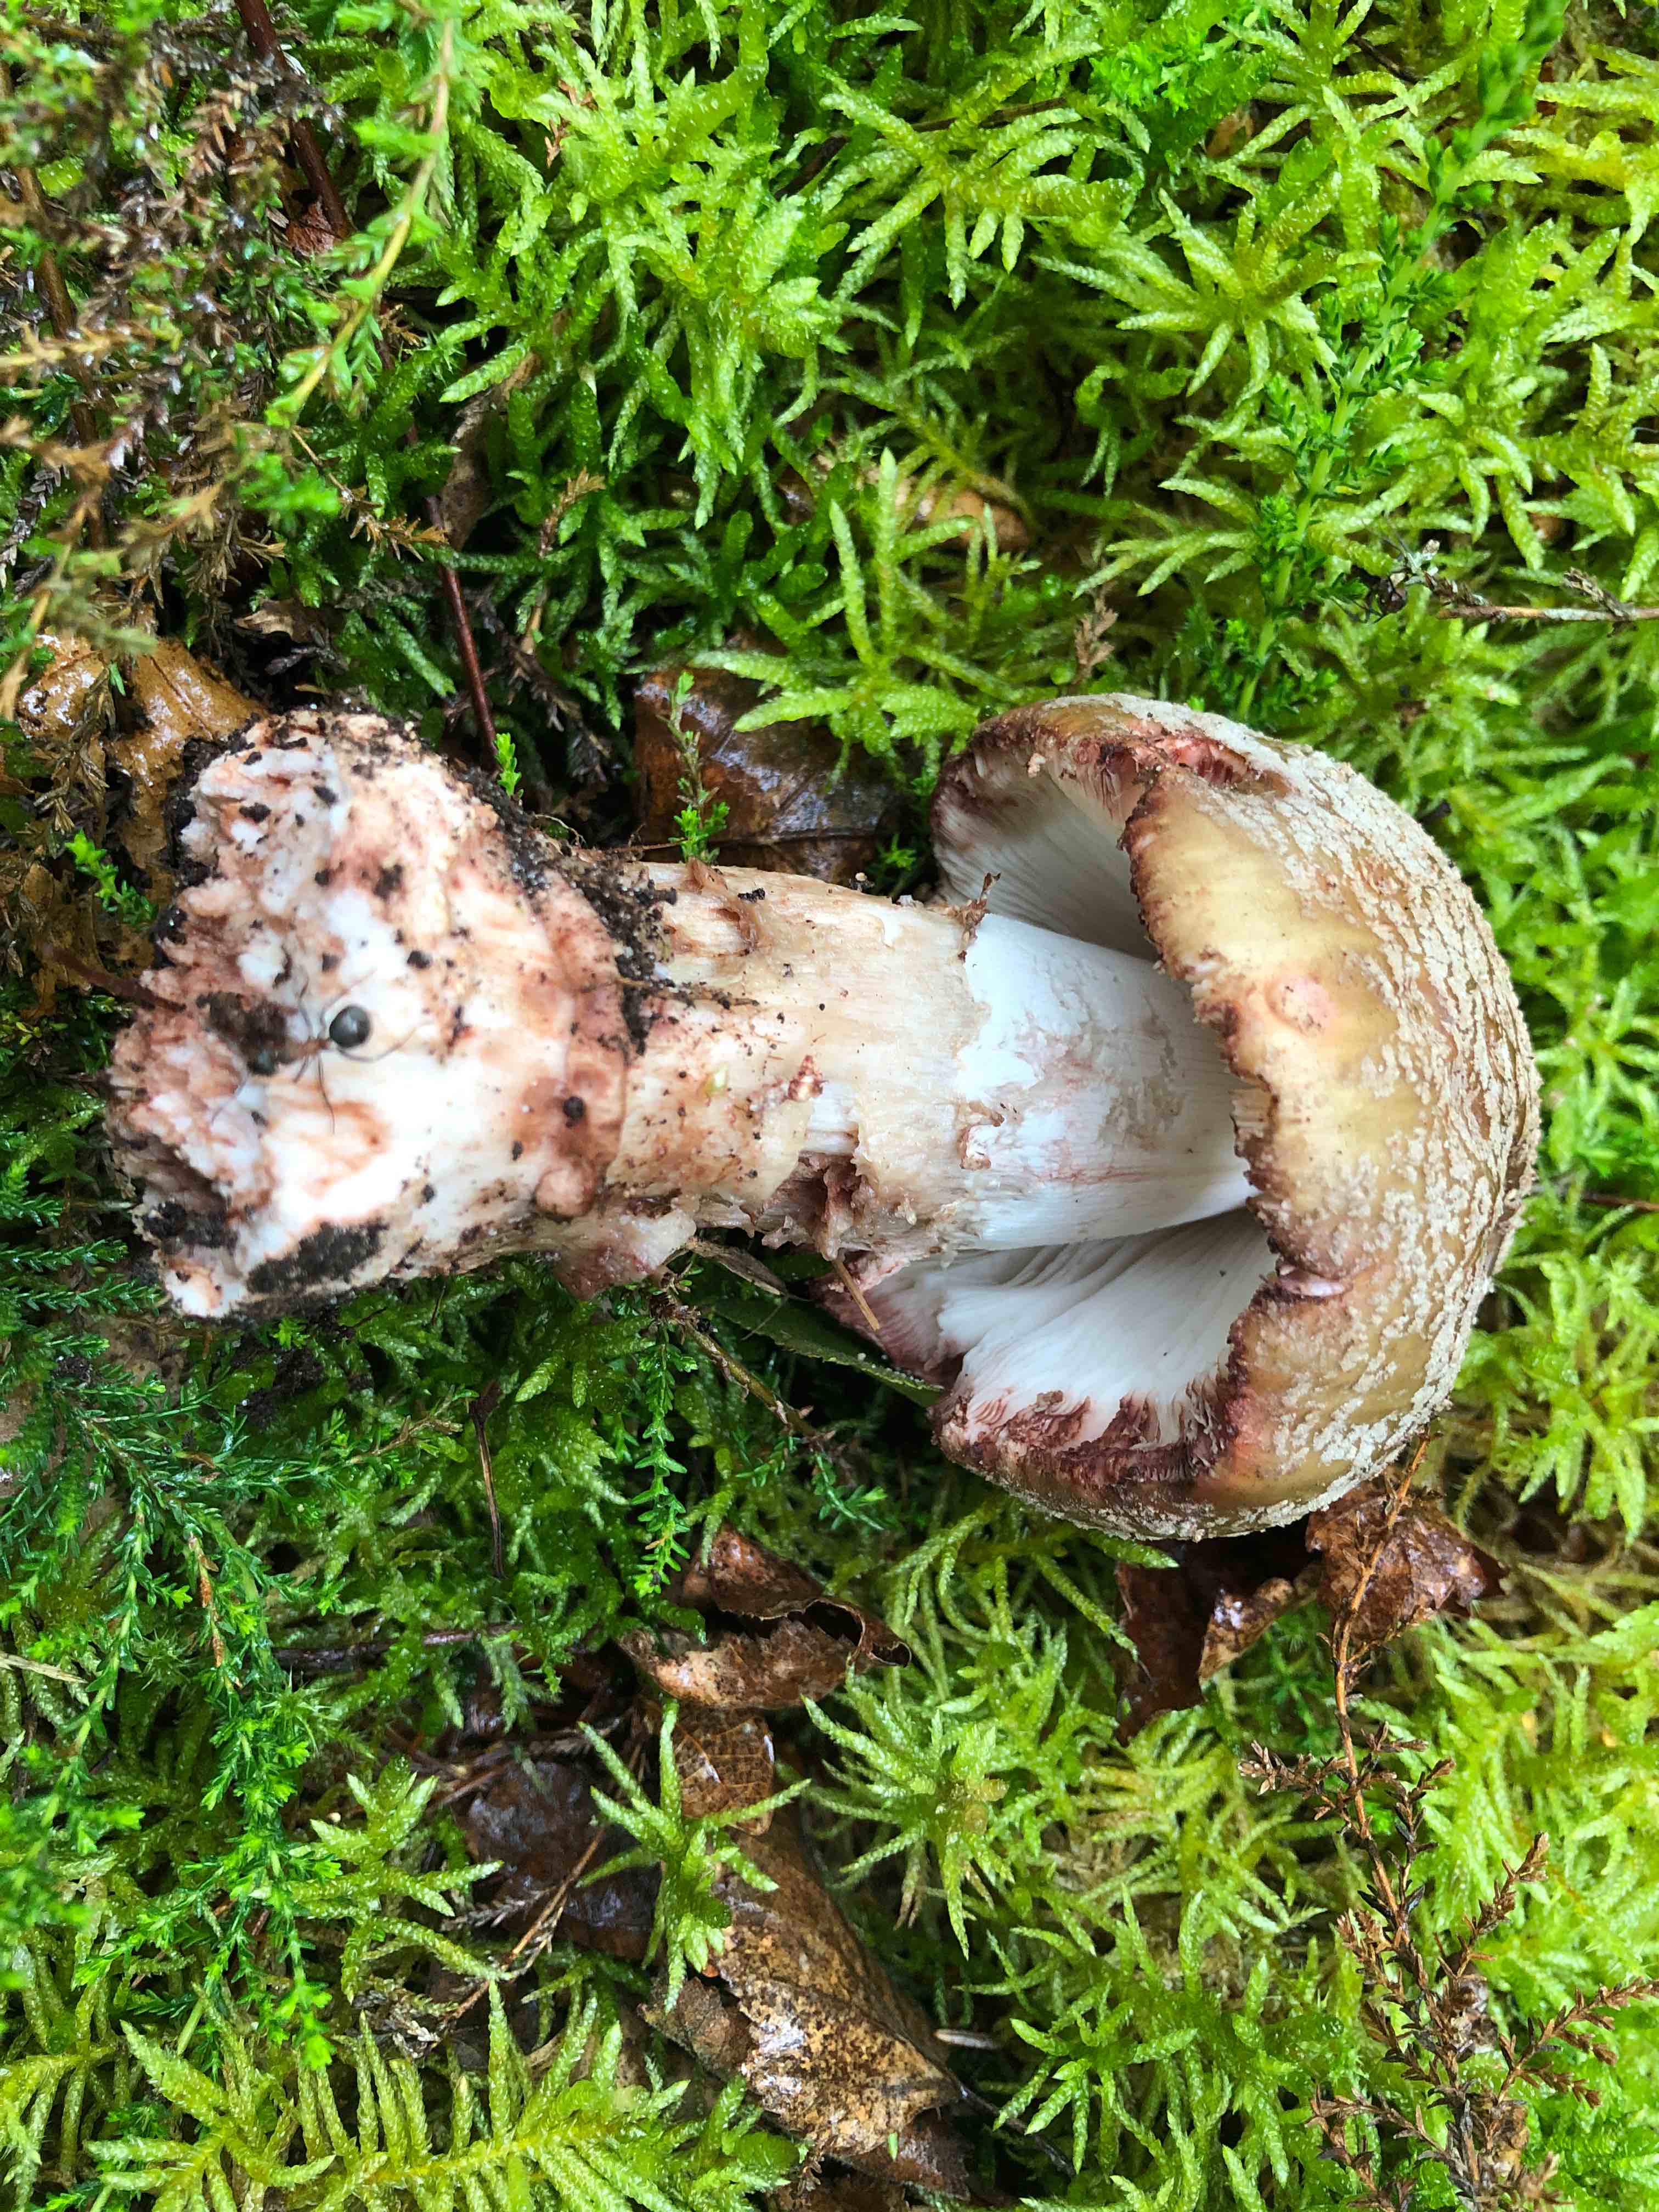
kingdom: Fungi
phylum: Basidiomycota
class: Agaricomycetes
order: Agaricales
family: Amanitaceae
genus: Amanita
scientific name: Amanita rubescens
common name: rødmende fluesvamp
